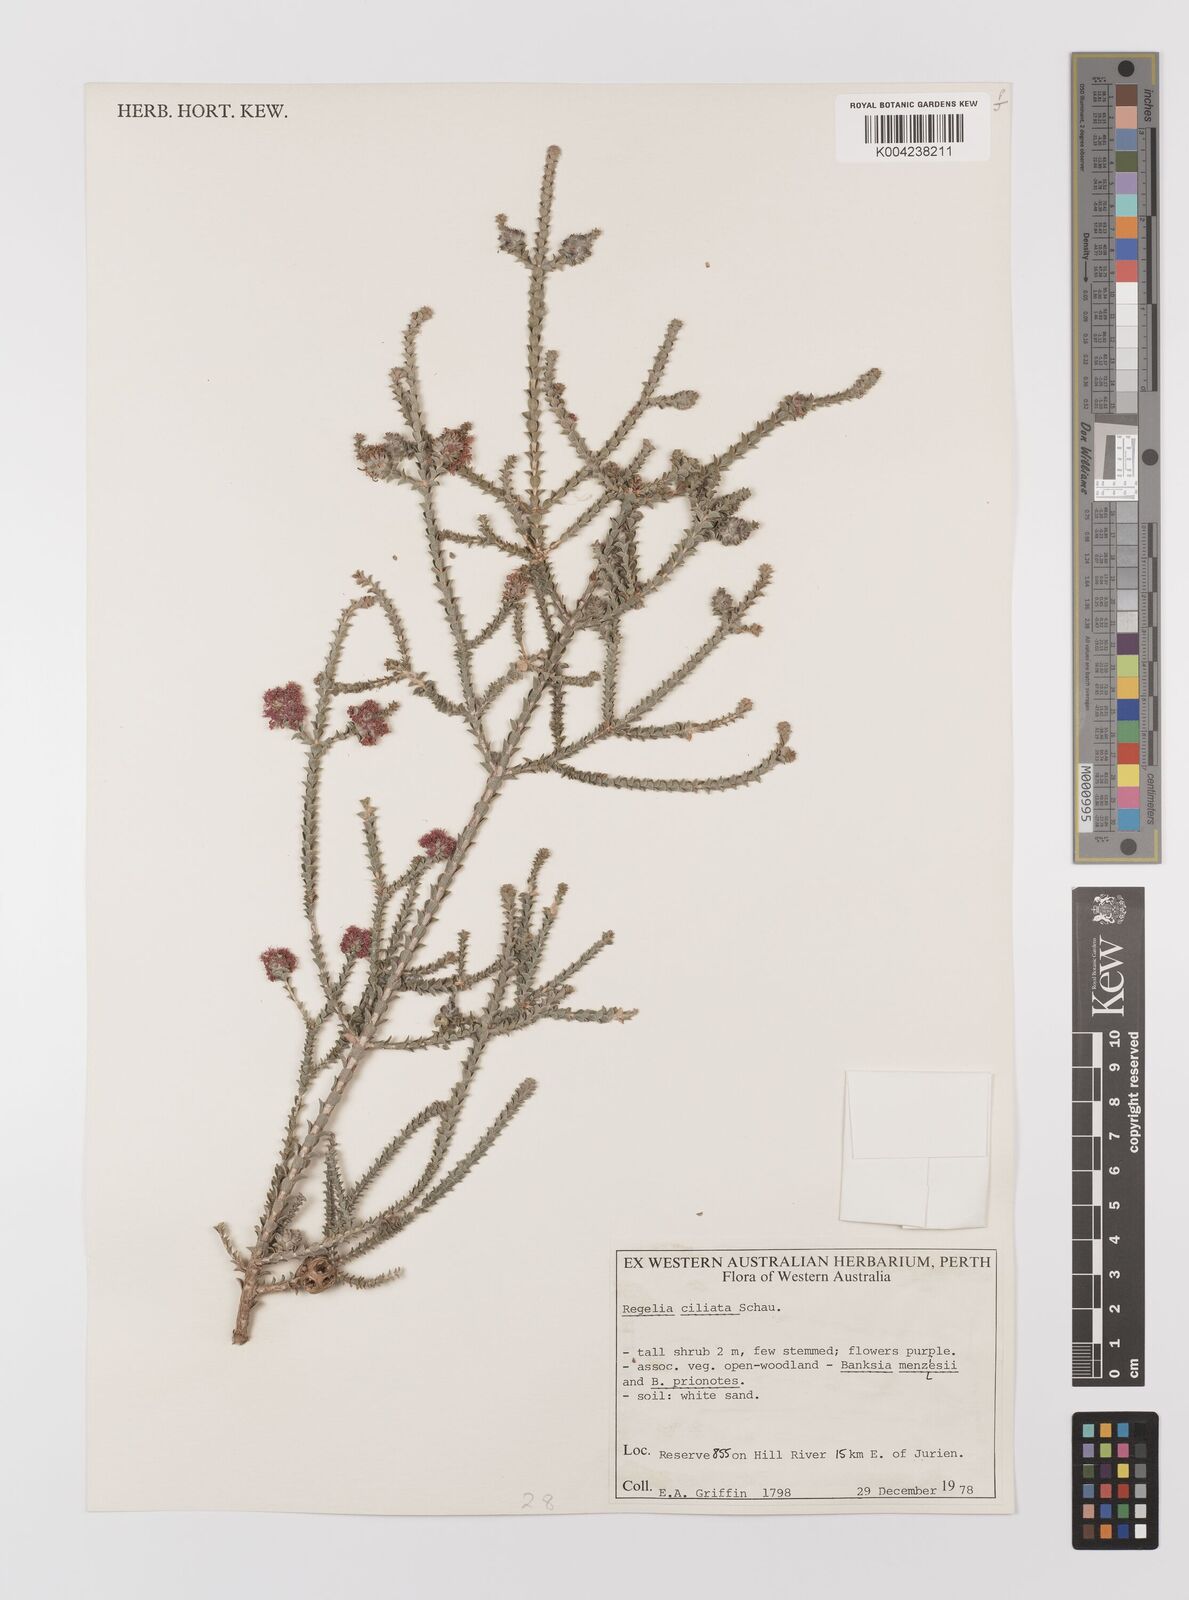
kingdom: Plantae
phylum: Tracheophyta
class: Magnoliopsida
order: Myrtales
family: Myrtaceae
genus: Melaleuca
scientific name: Melaleuca crossota
